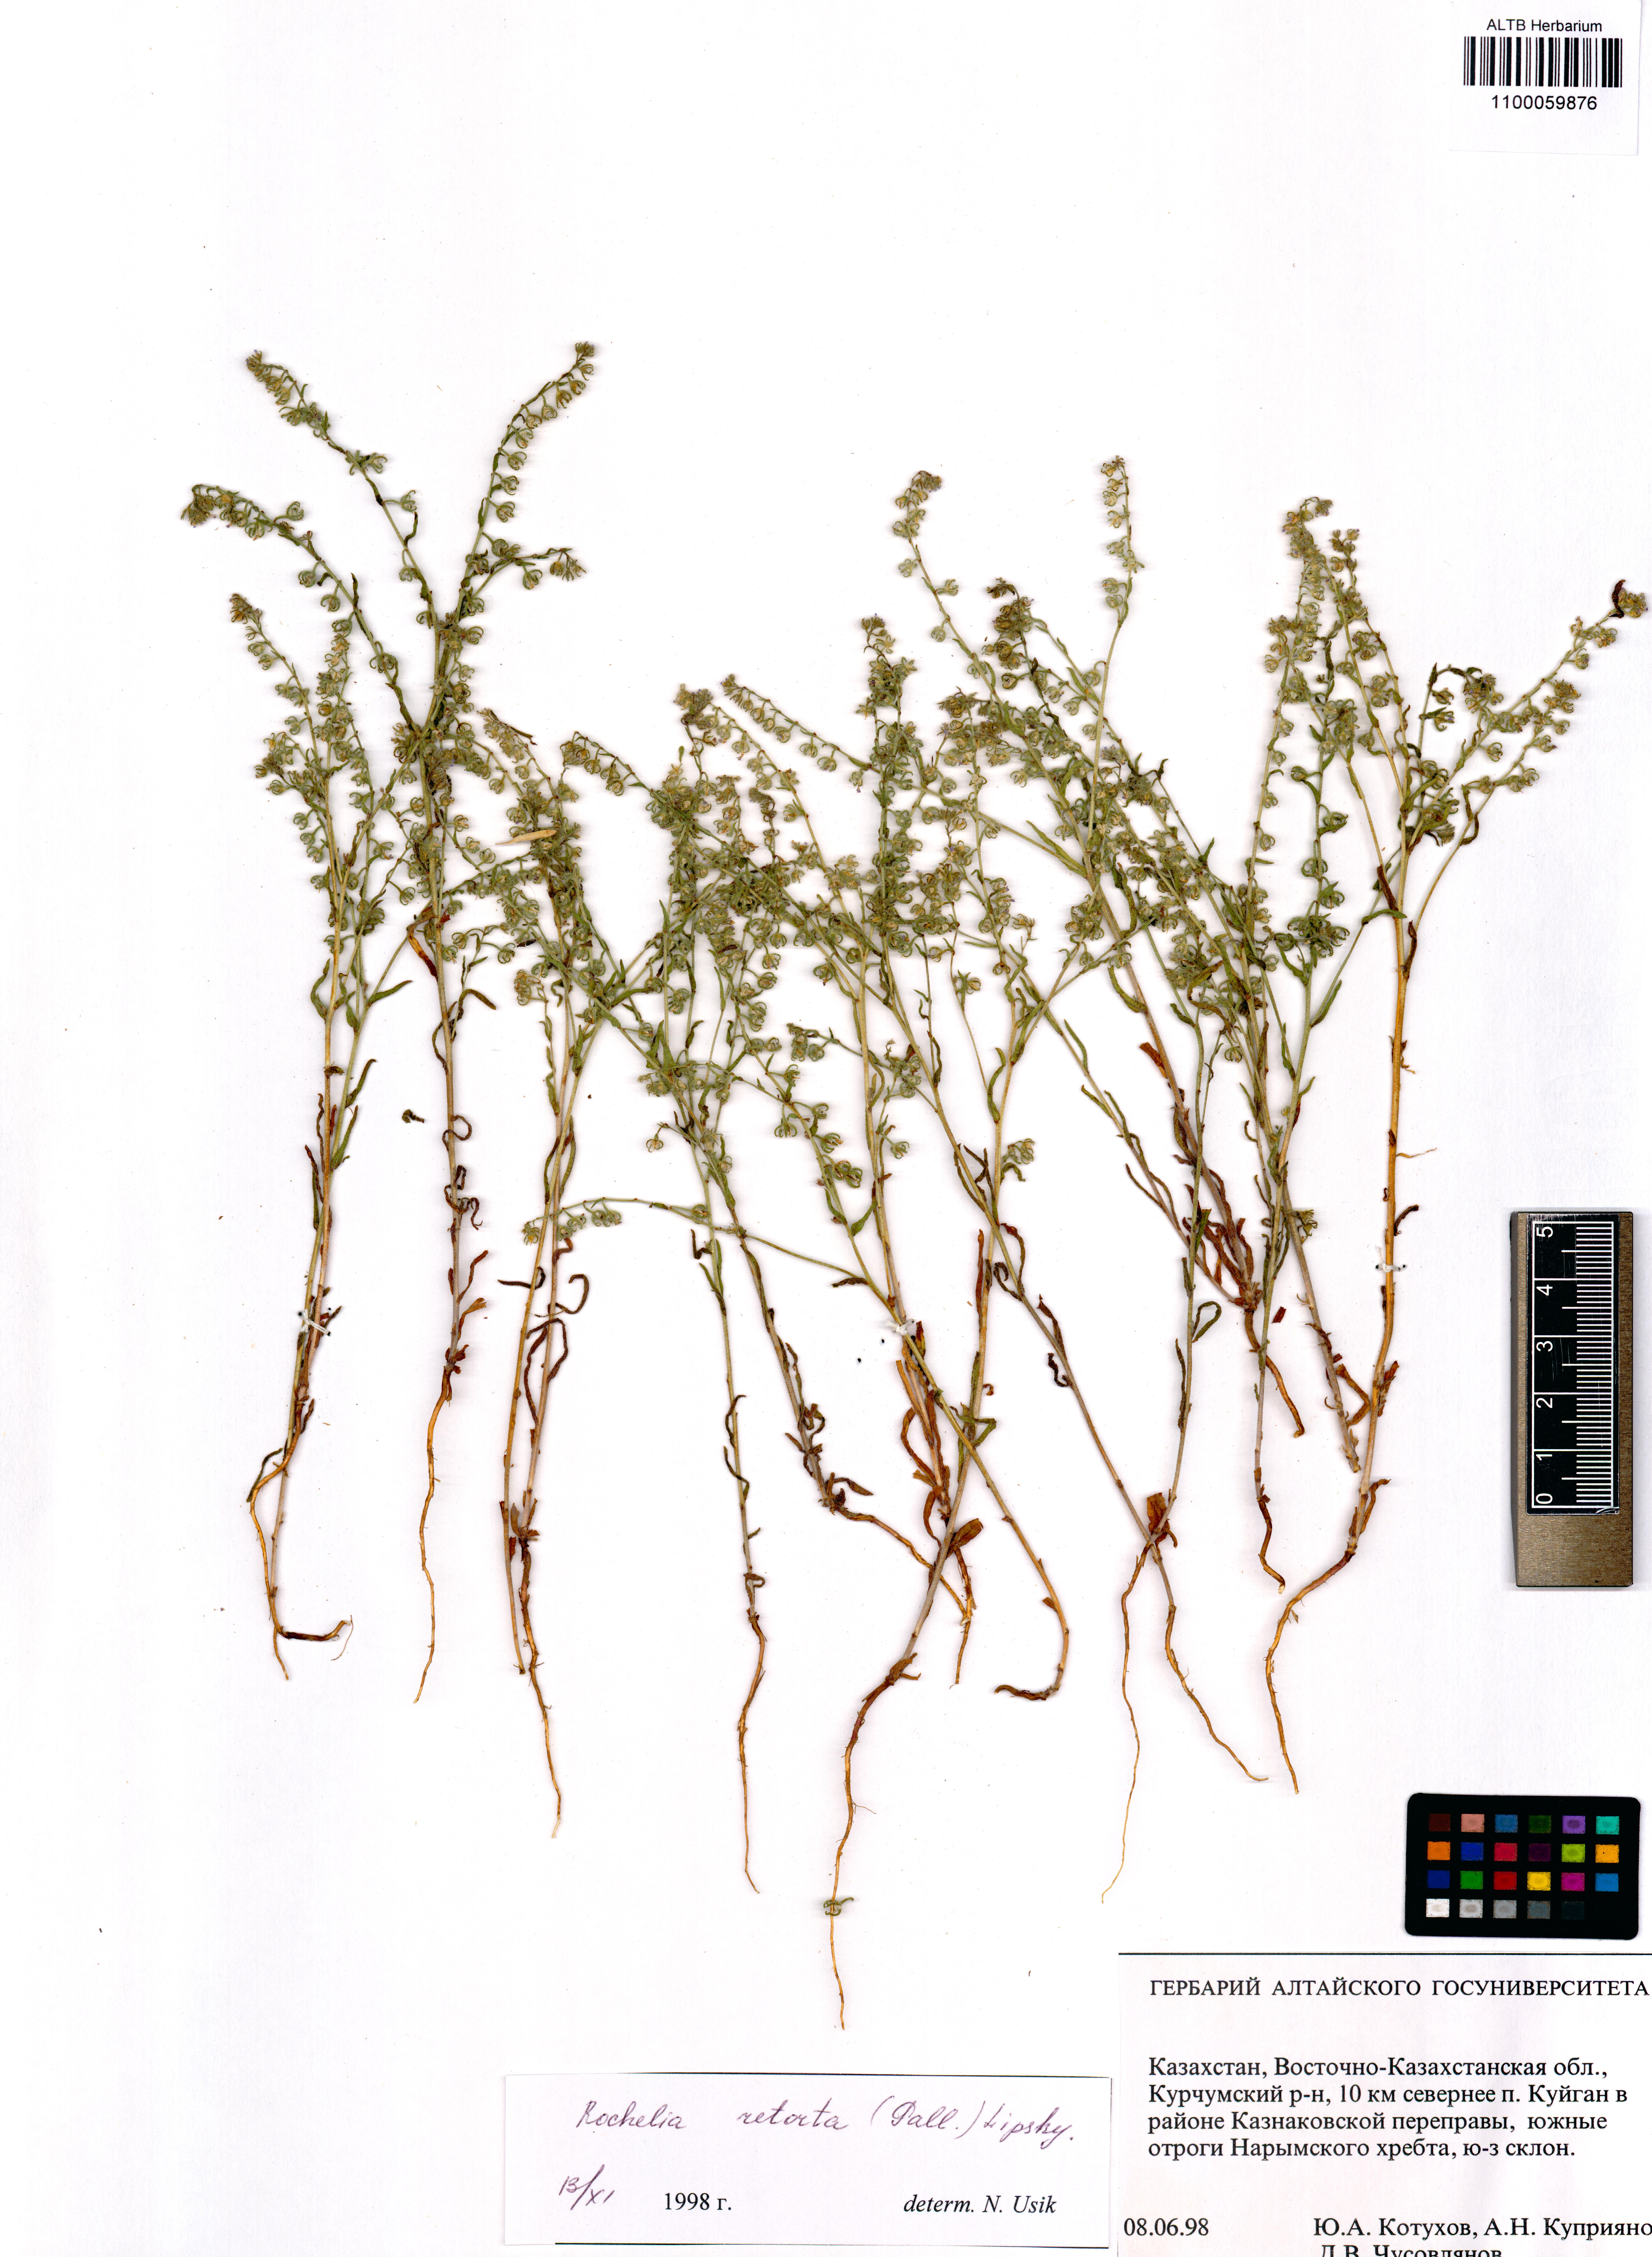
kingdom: Plantae
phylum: Tracheophyta
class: Magnoliopsida
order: Boraginales
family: Boraginaceae
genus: Rochelia
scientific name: Rochelia retorta
